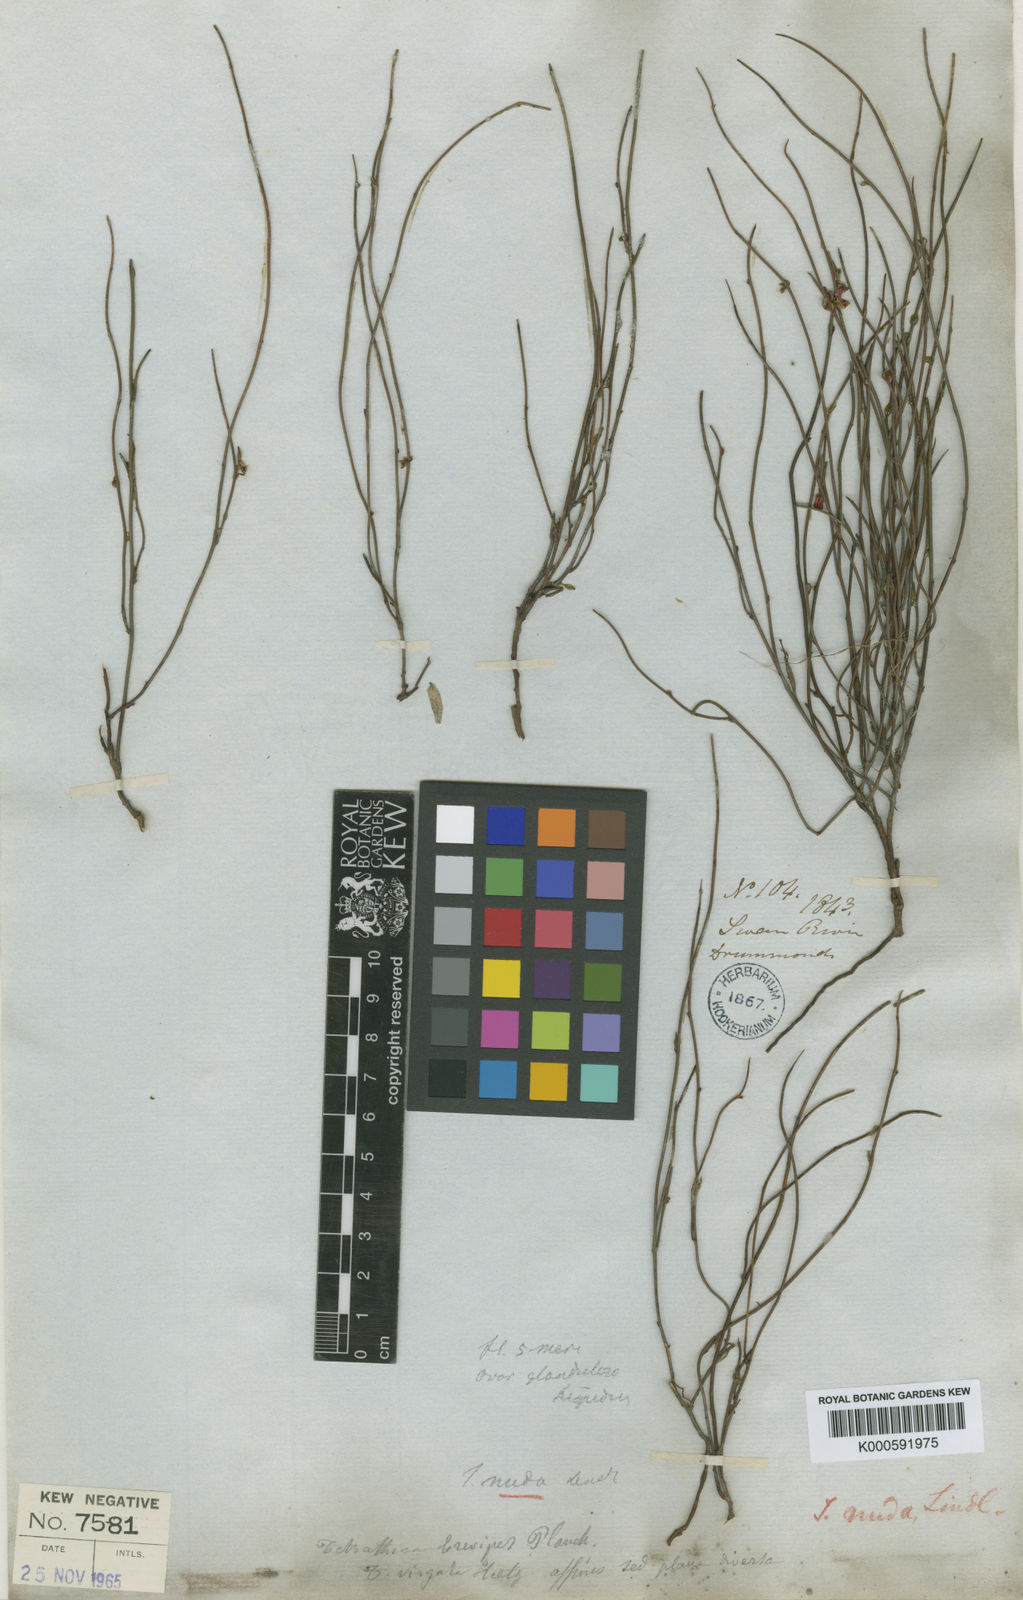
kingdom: Plantae
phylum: Tracheophyta
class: Magnoliopsida
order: Oxalidales
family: Elaeocarpaceae
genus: Tetratheca
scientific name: Tetratheca spartea
